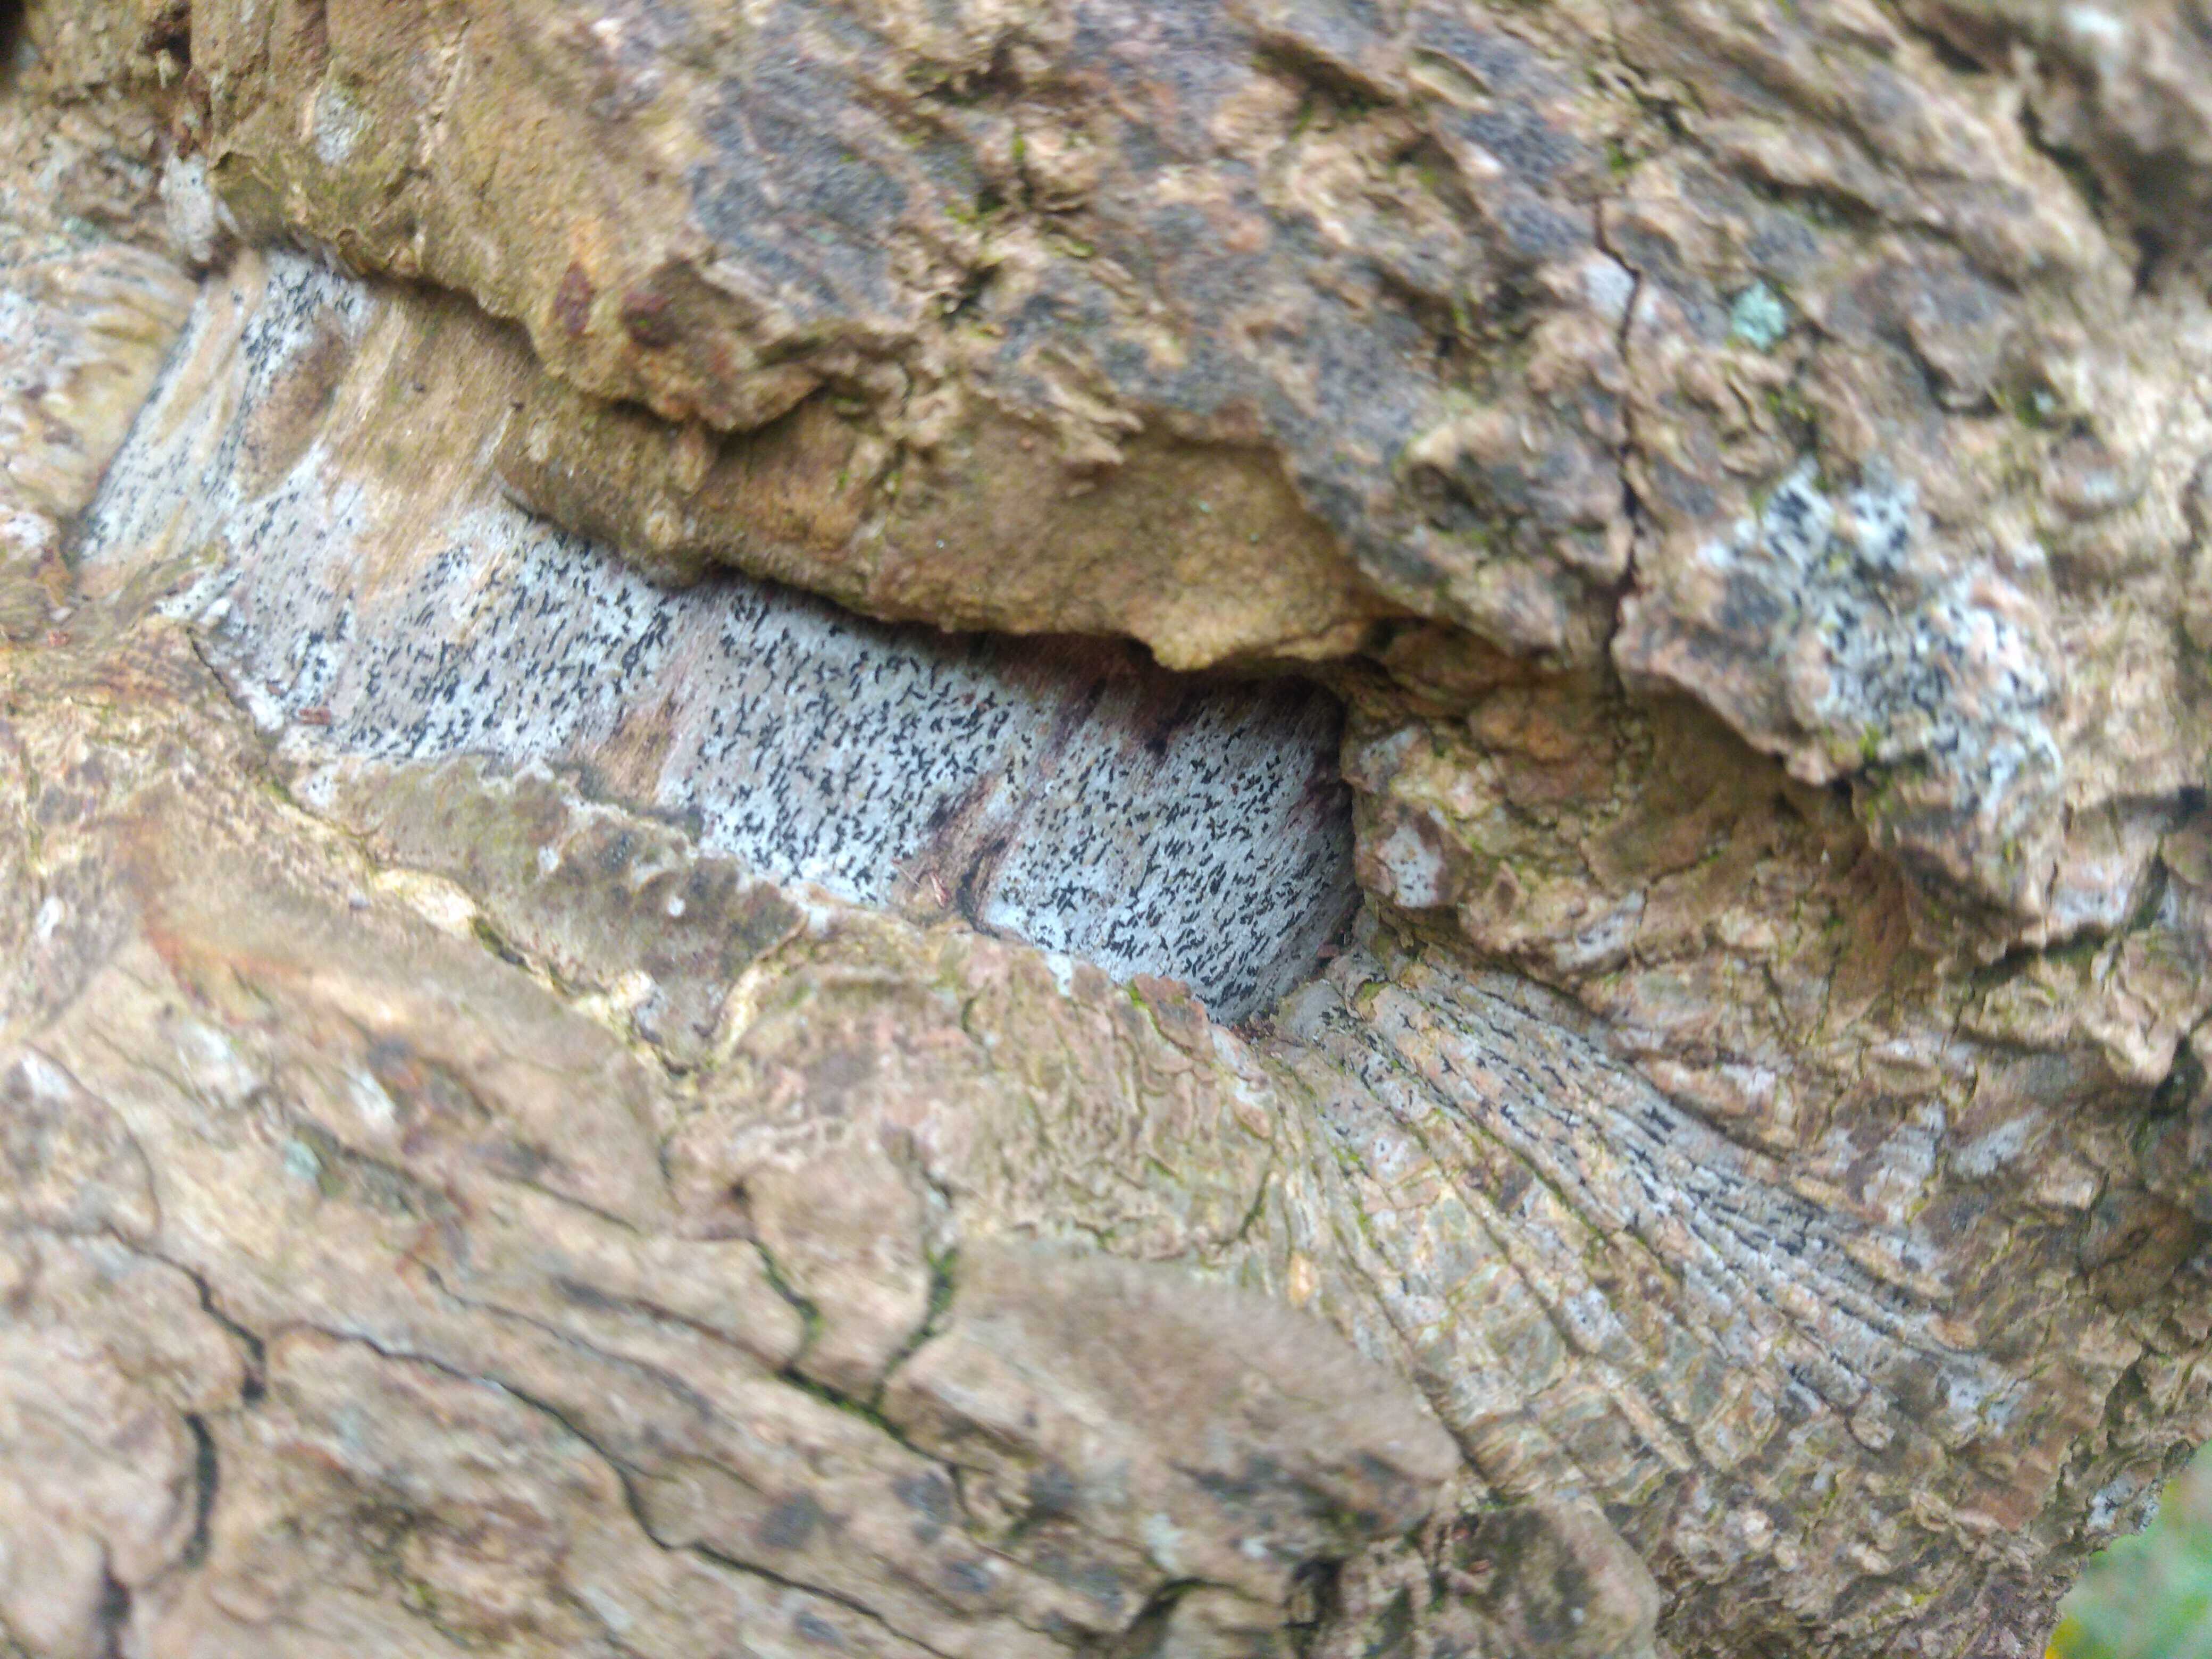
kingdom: Fungi
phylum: Ascomycota
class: Arthoniomycetes
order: Arthoniales
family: Lecanographaceae
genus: Alyxoria
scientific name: Alyxoria
